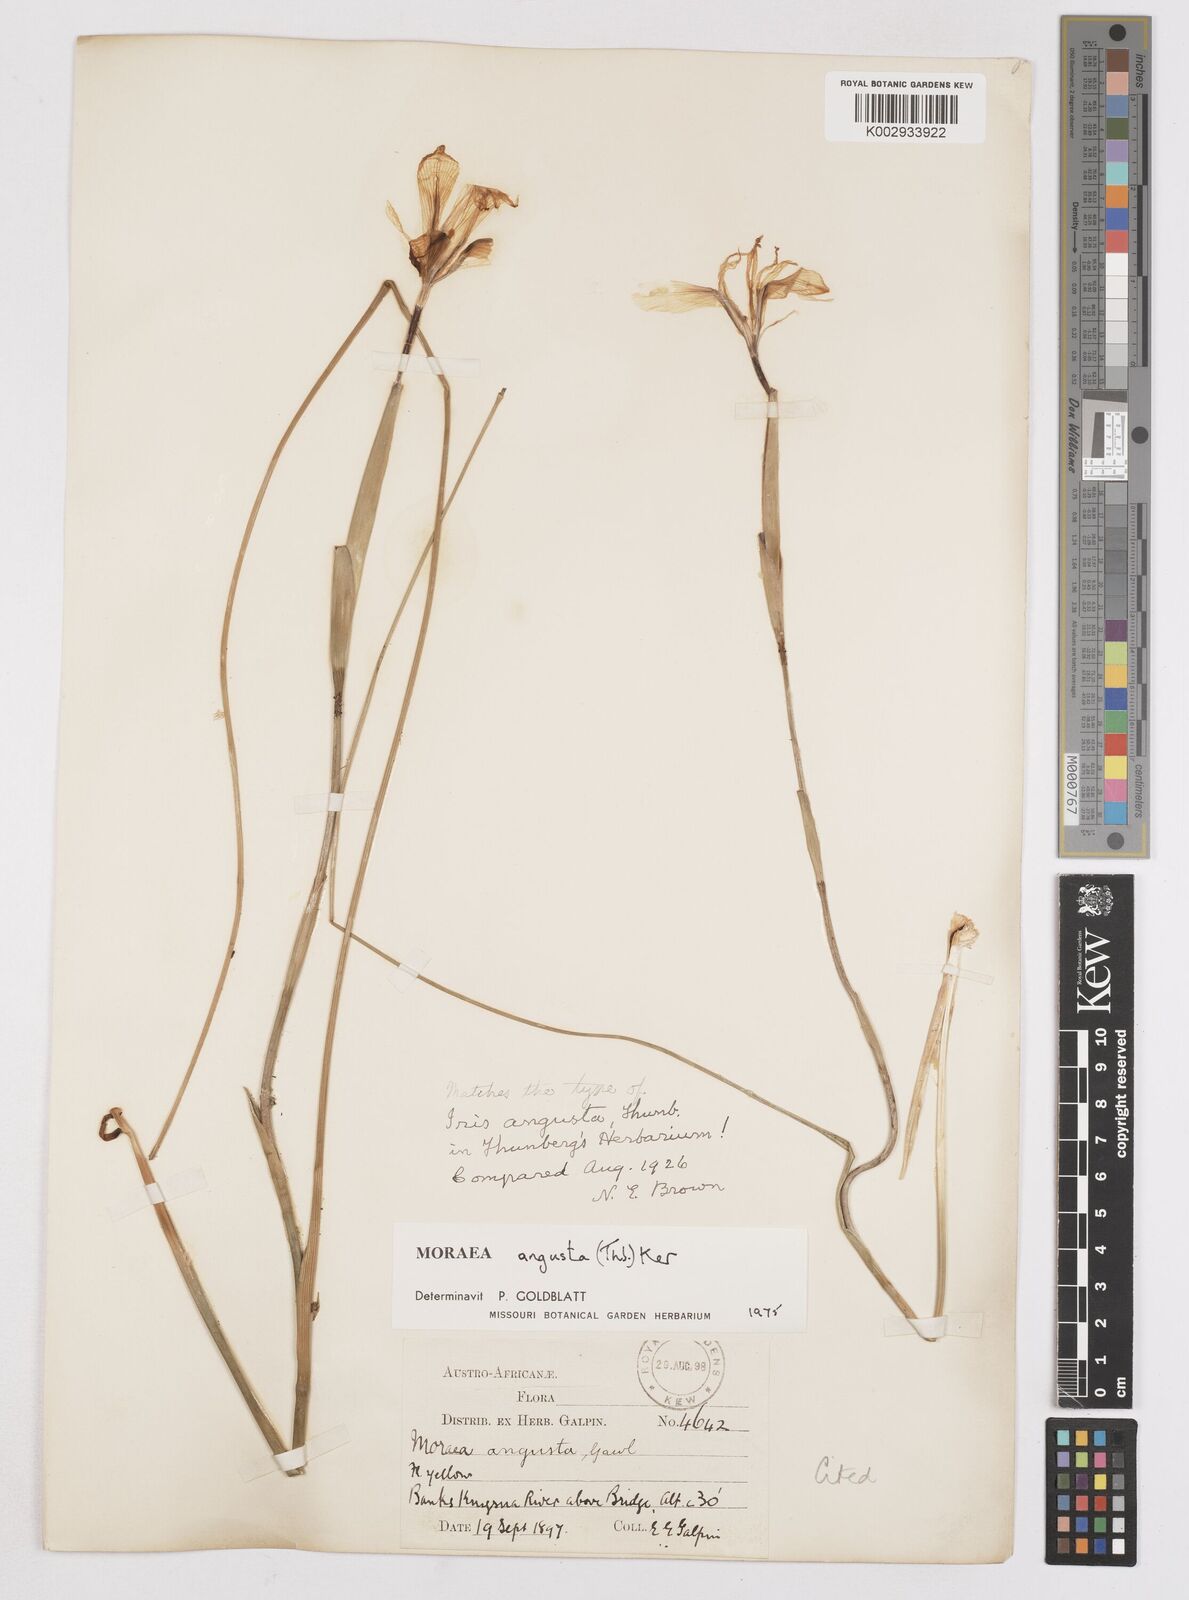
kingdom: Plantae
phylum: Tracheophyta
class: Liliopsida
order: Asparagales
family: Iridaceae
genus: Moraea
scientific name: Moraea angusta
